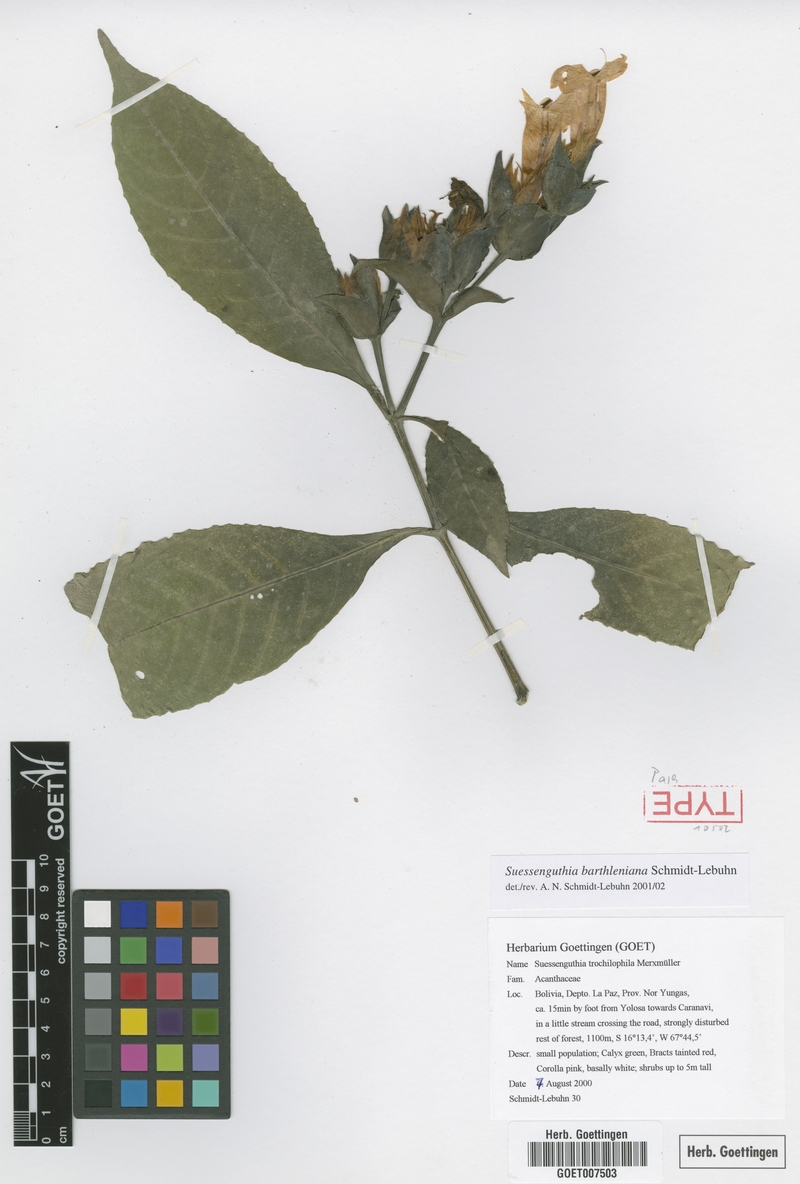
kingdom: Plantae
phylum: Tracheophyta
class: Magnoliopsida
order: Lamiales
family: Acanthaceae
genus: Suessenguthia
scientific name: Suessenguthia barthleniana
